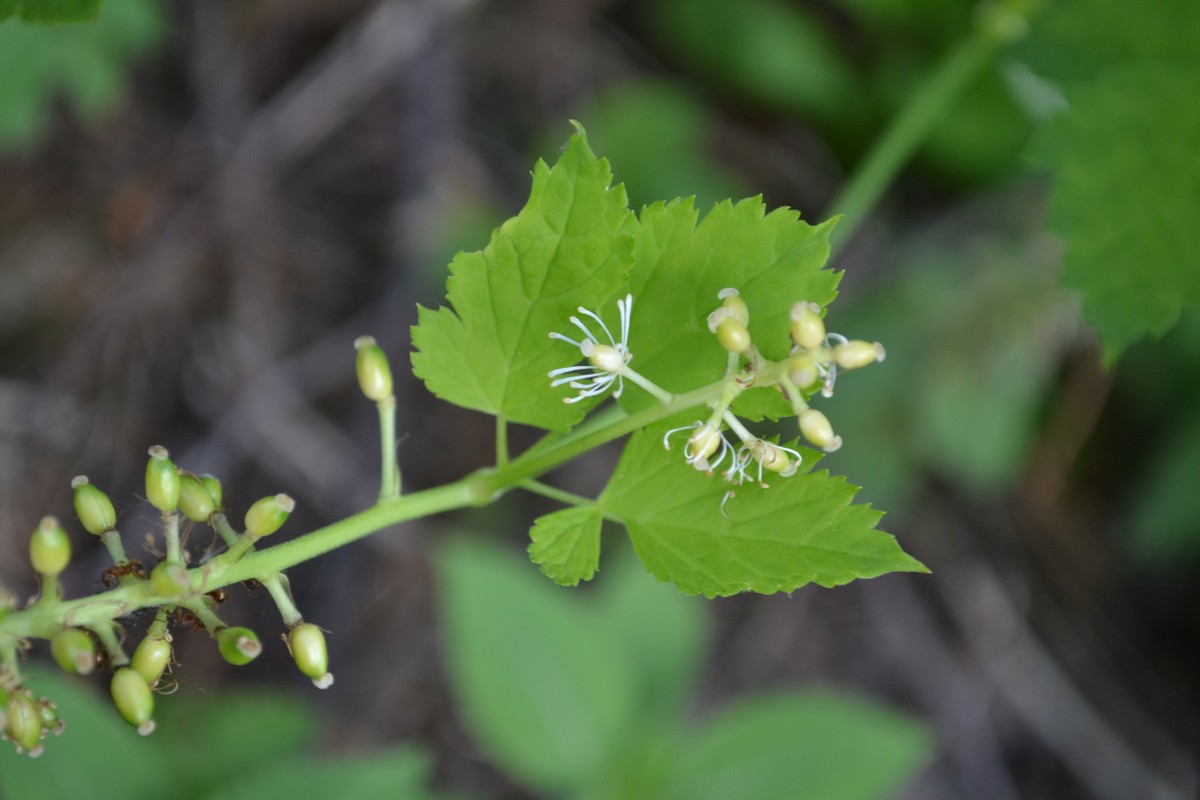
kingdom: Plantae
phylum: Tracheophyta
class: Magnoliopsida
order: Ranunculales
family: Ranunculaceae
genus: Actaea
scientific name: Actaea erythrocarpa
